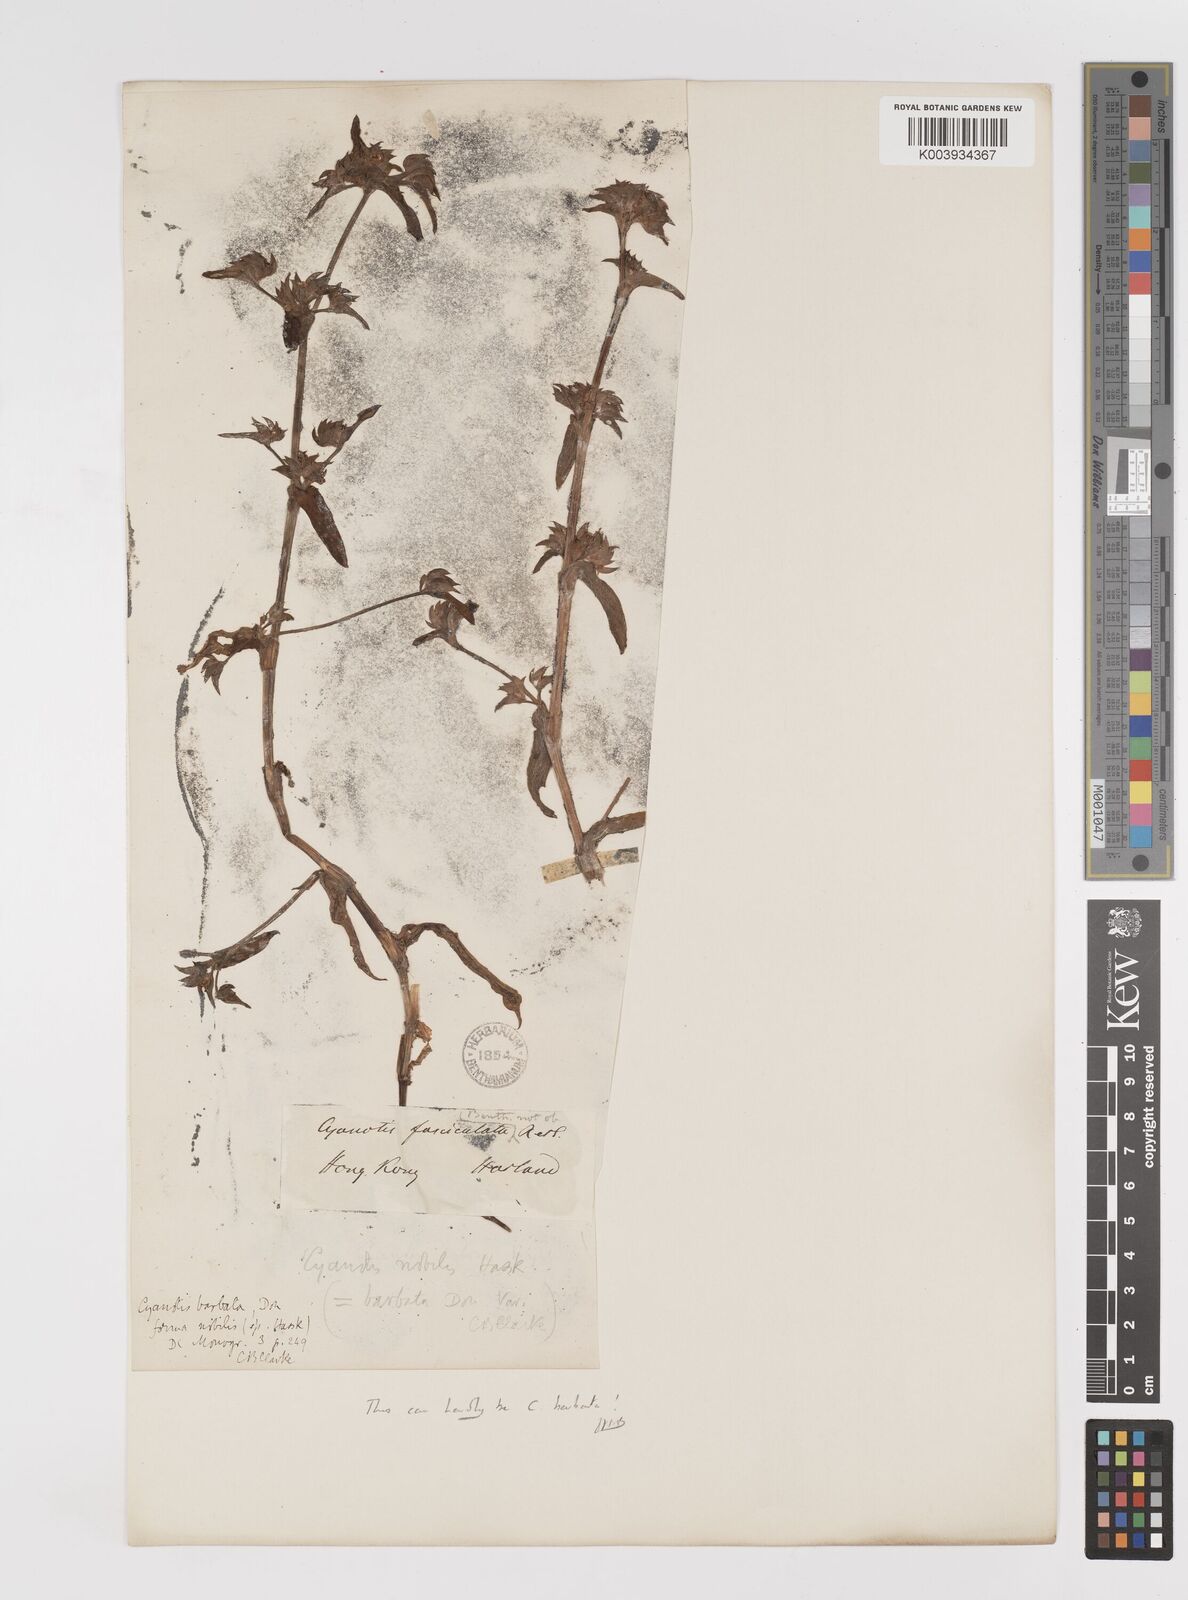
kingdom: Plantae
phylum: Tracheophyta
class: Liliopsida
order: Commelinales
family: Commelinaceae
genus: Cyanotis
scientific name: Cyanotis
